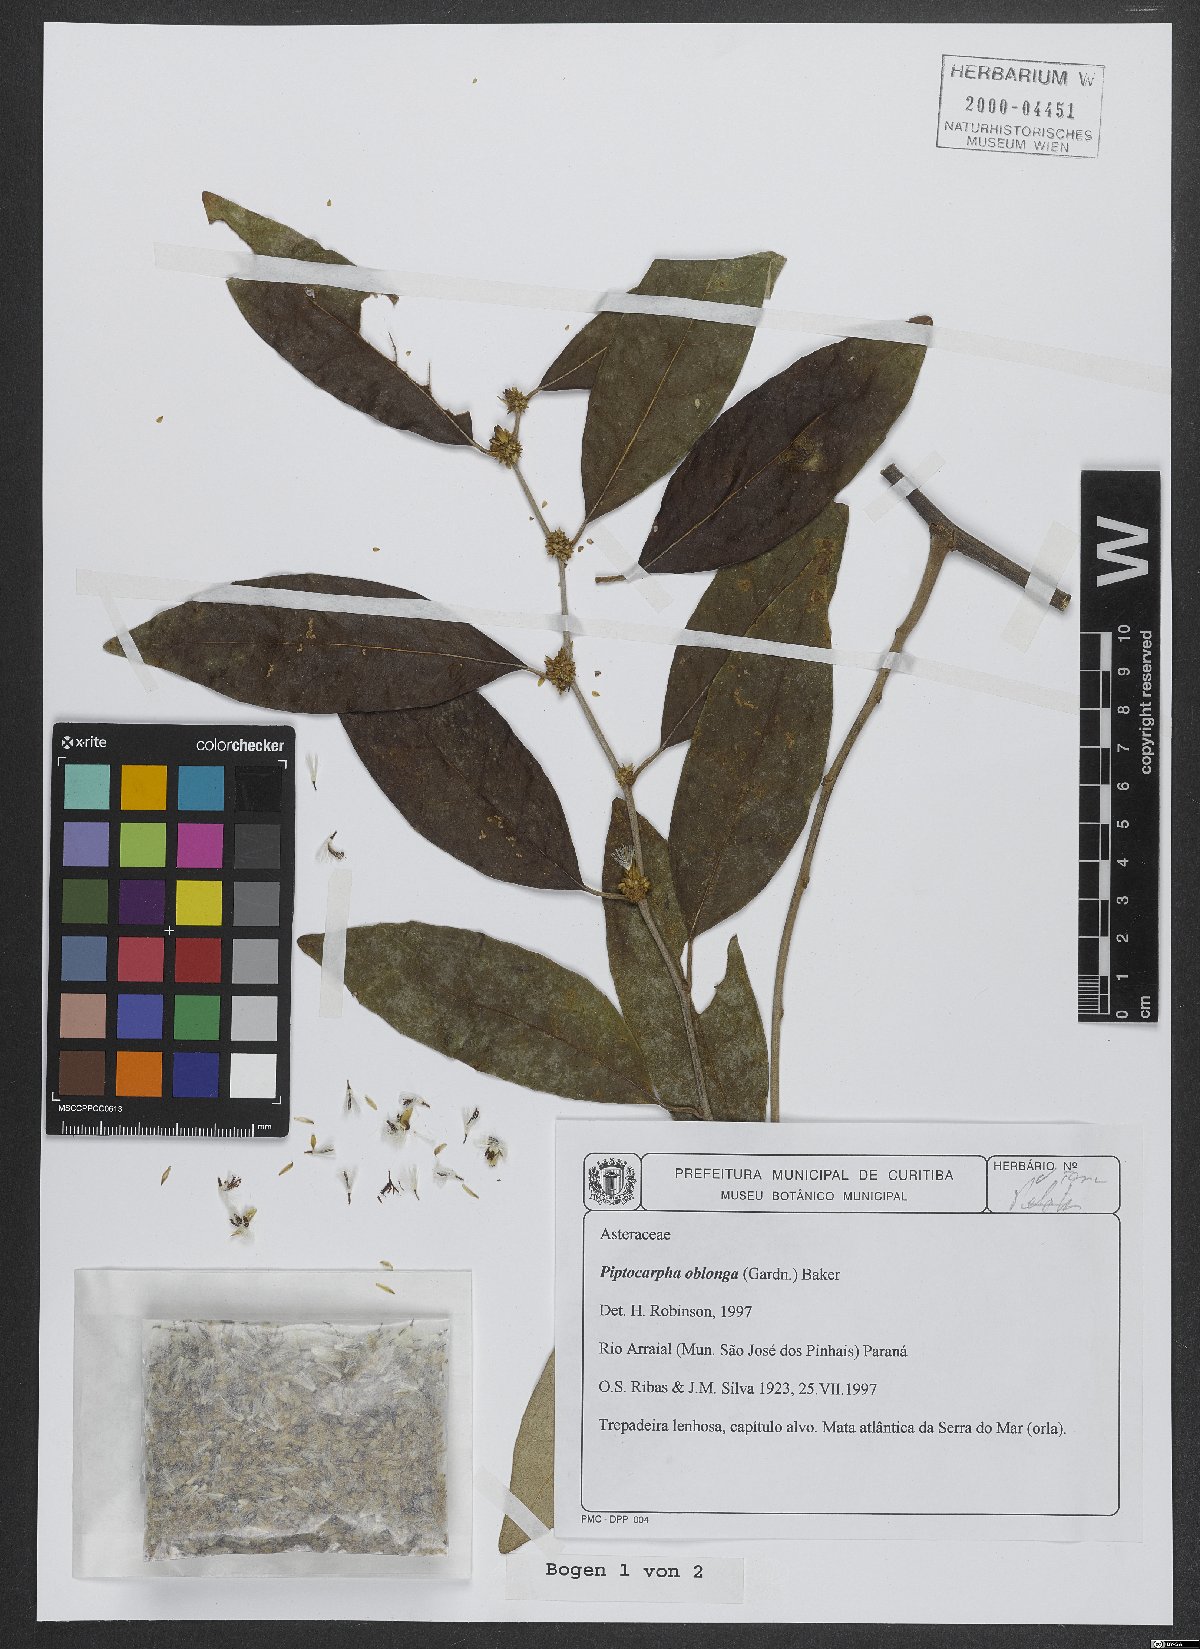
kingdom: Plantae
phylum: Tracheophyta
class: Magnoliopsida
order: Asterales
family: Asteraceae
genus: Piptocarpha
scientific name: Piptocarpha oblonga
